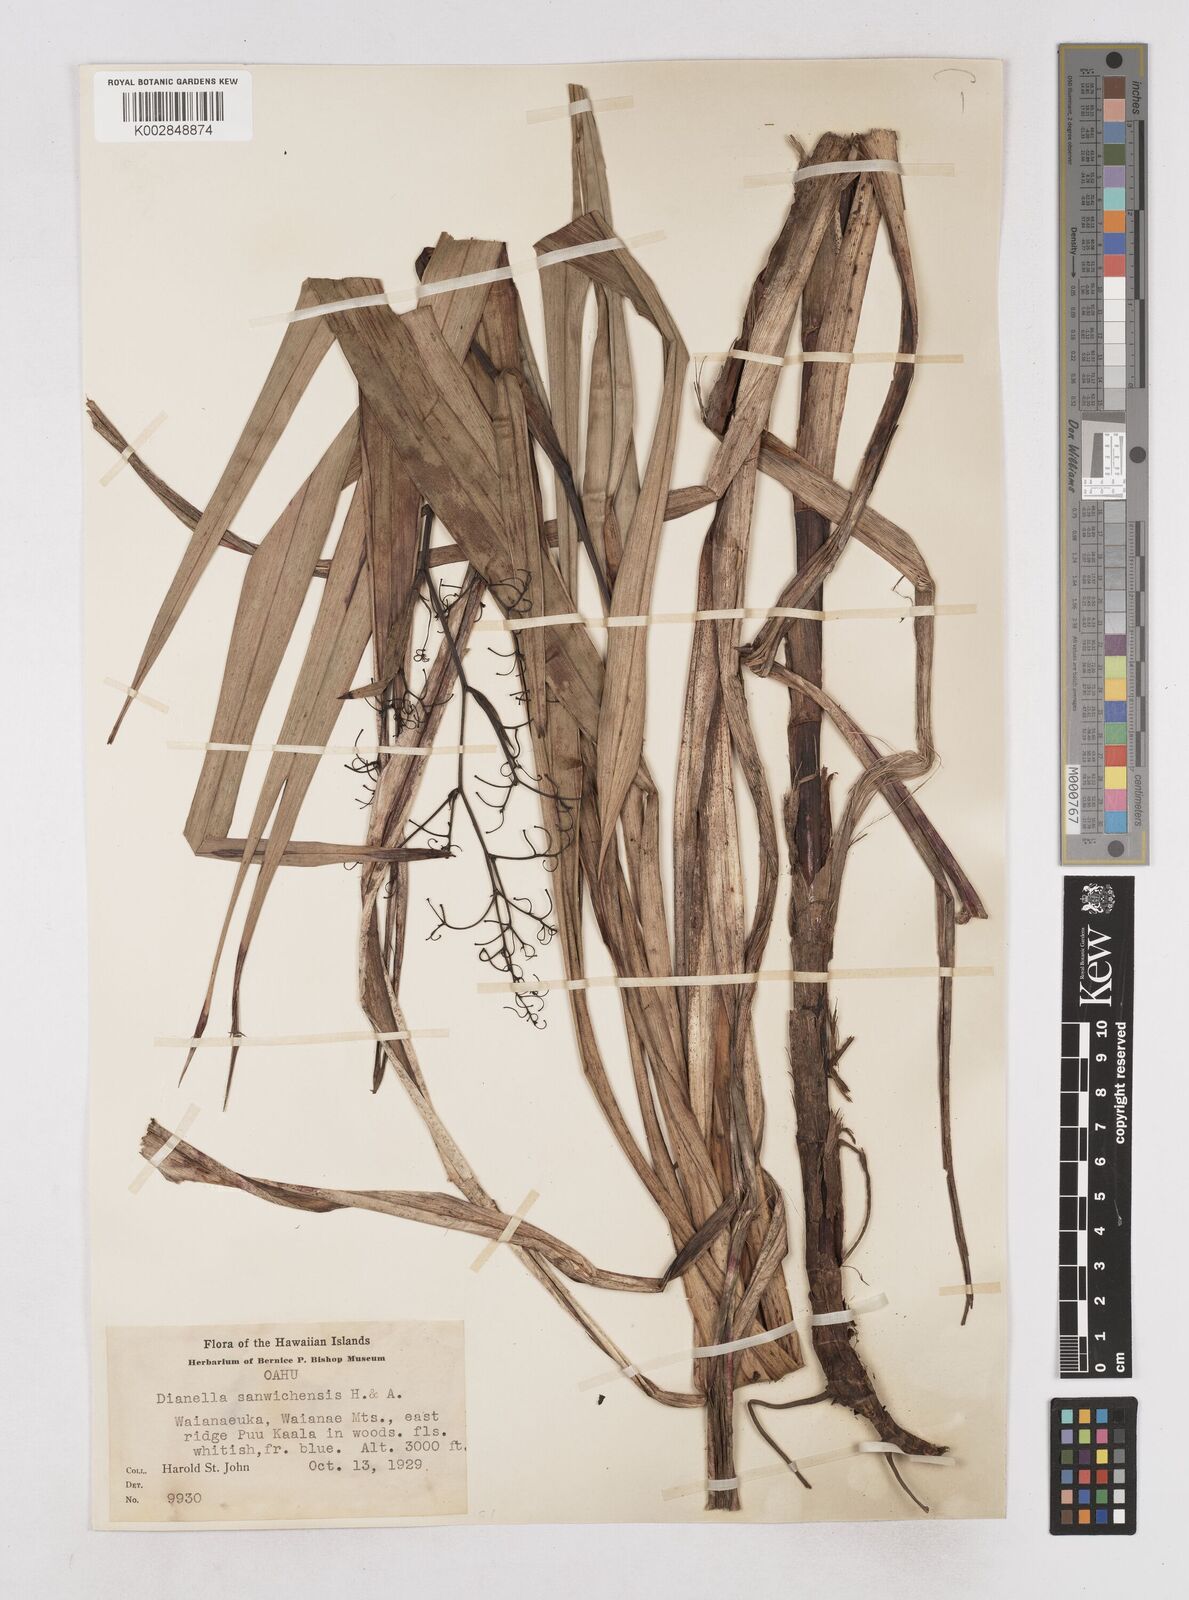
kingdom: Plantae
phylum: Tracheophyta
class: Liliopsida
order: Asparagales
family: Asphodelaceae
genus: Dianella
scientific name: Dianella sandwicensis
